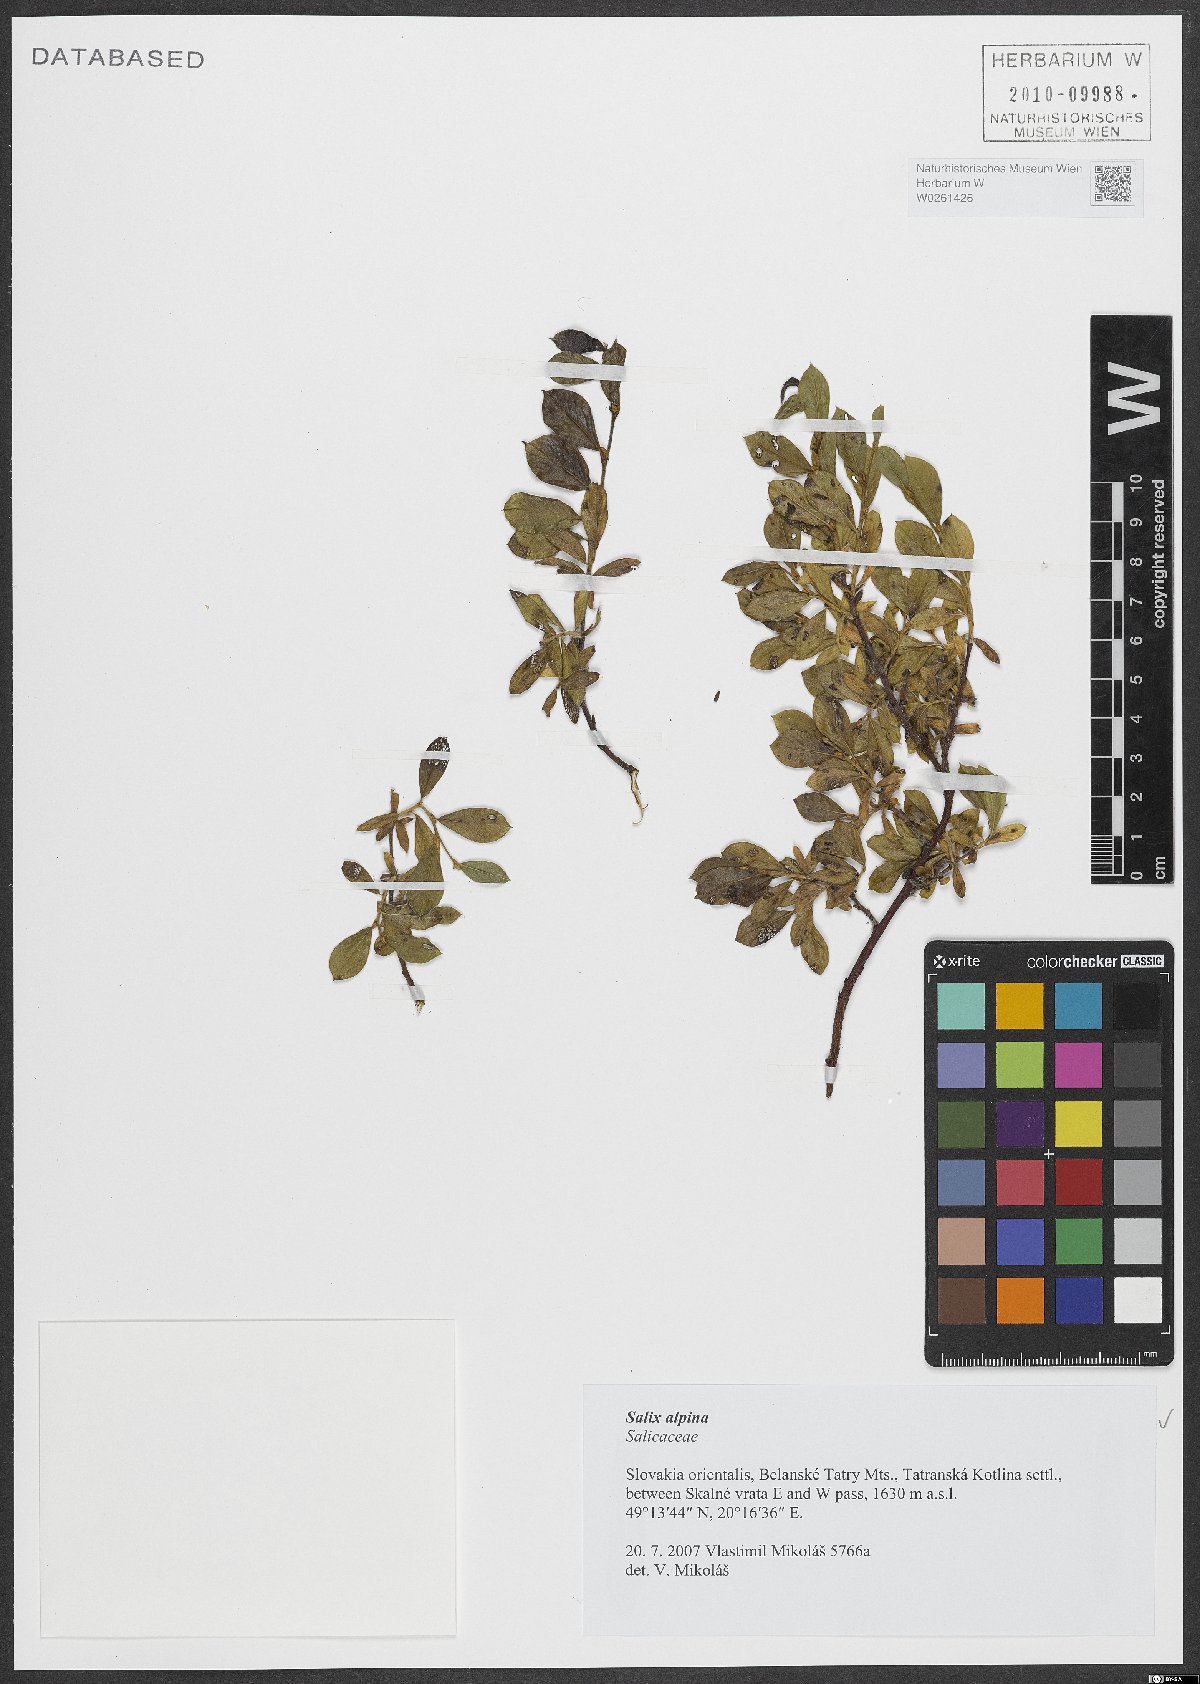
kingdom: Plantae
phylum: Tracheophyta
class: Magnoliopsida
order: Malpighiales
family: Salicaceae
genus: Salix
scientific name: Salix alpina
